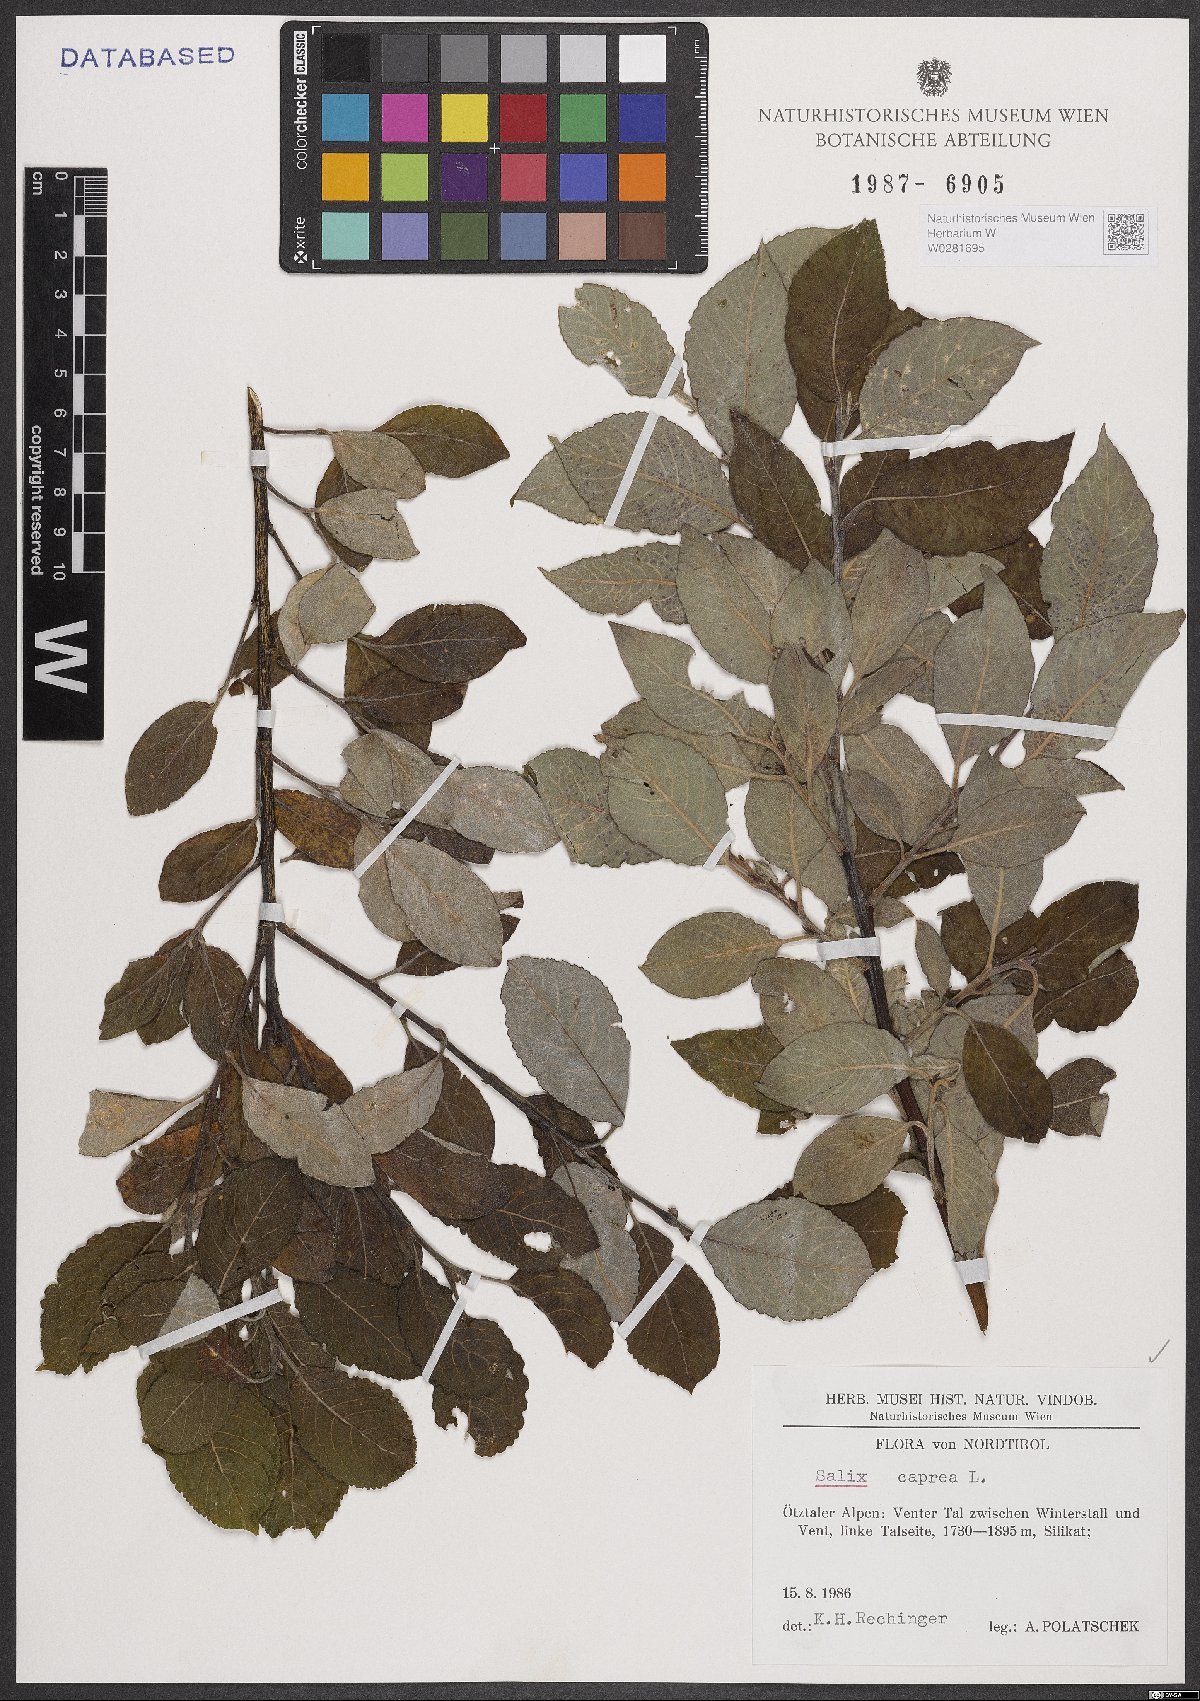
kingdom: Plantae
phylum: Tracheophyta
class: Magnoliopsida
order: Malpighiales
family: Salicaceae
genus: Salix
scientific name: Salix caprea
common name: Goat willow
